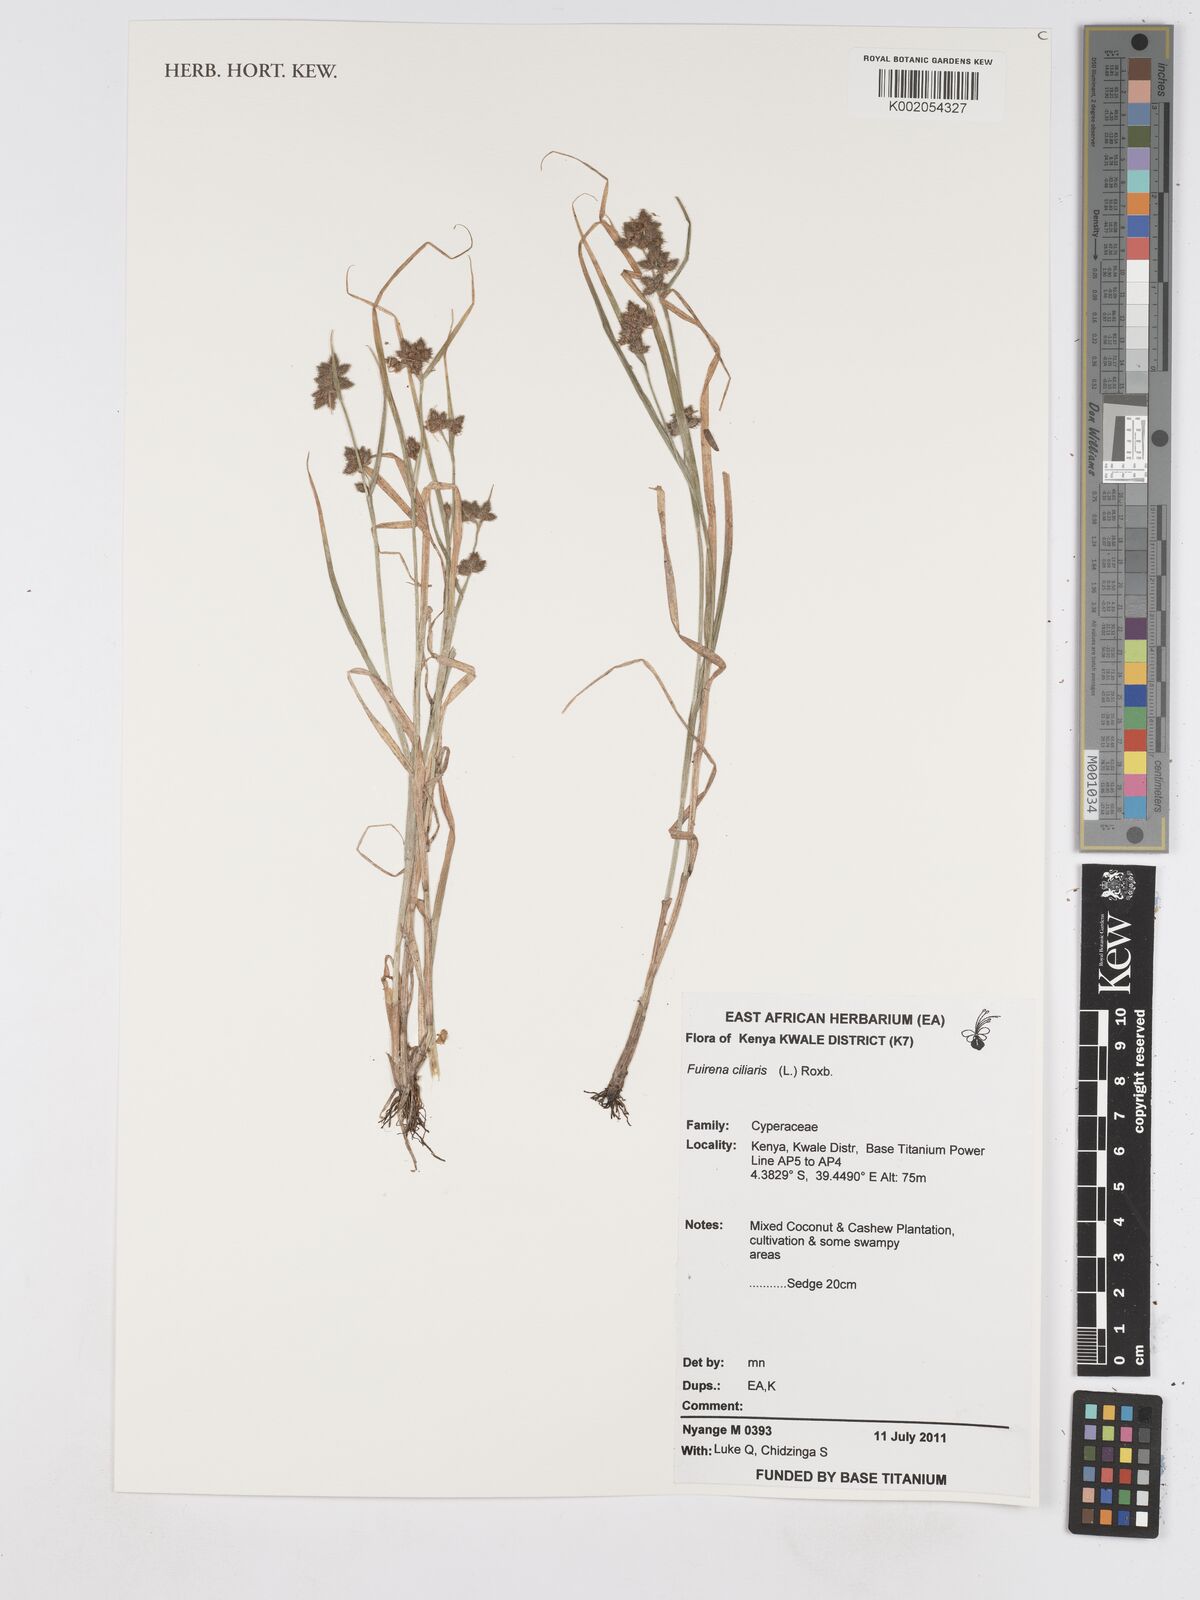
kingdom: Plantae
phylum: Tracheophyta
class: Liliopsida
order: Poales
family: Cyperaceae
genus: Fuirena
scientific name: Fuirena ciliaris
